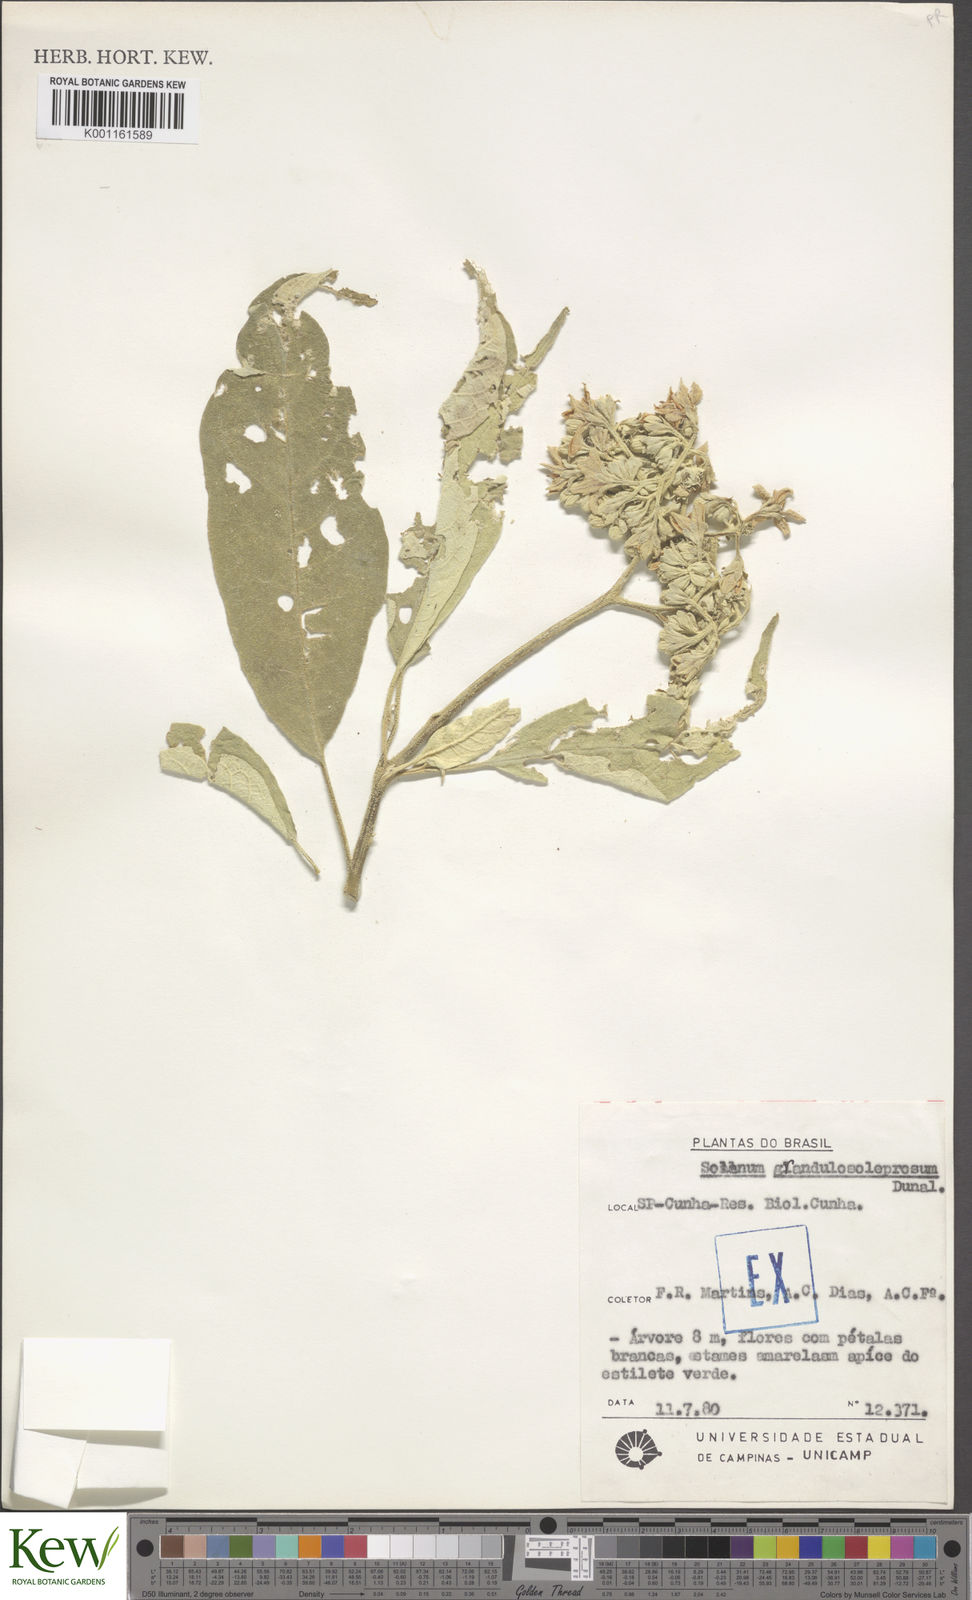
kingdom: Plantae
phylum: Tracheophyta
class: Magnoliopsida
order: Solanales
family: Solanaceae
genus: Solanum
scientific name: Solanum granulosoleprosum
